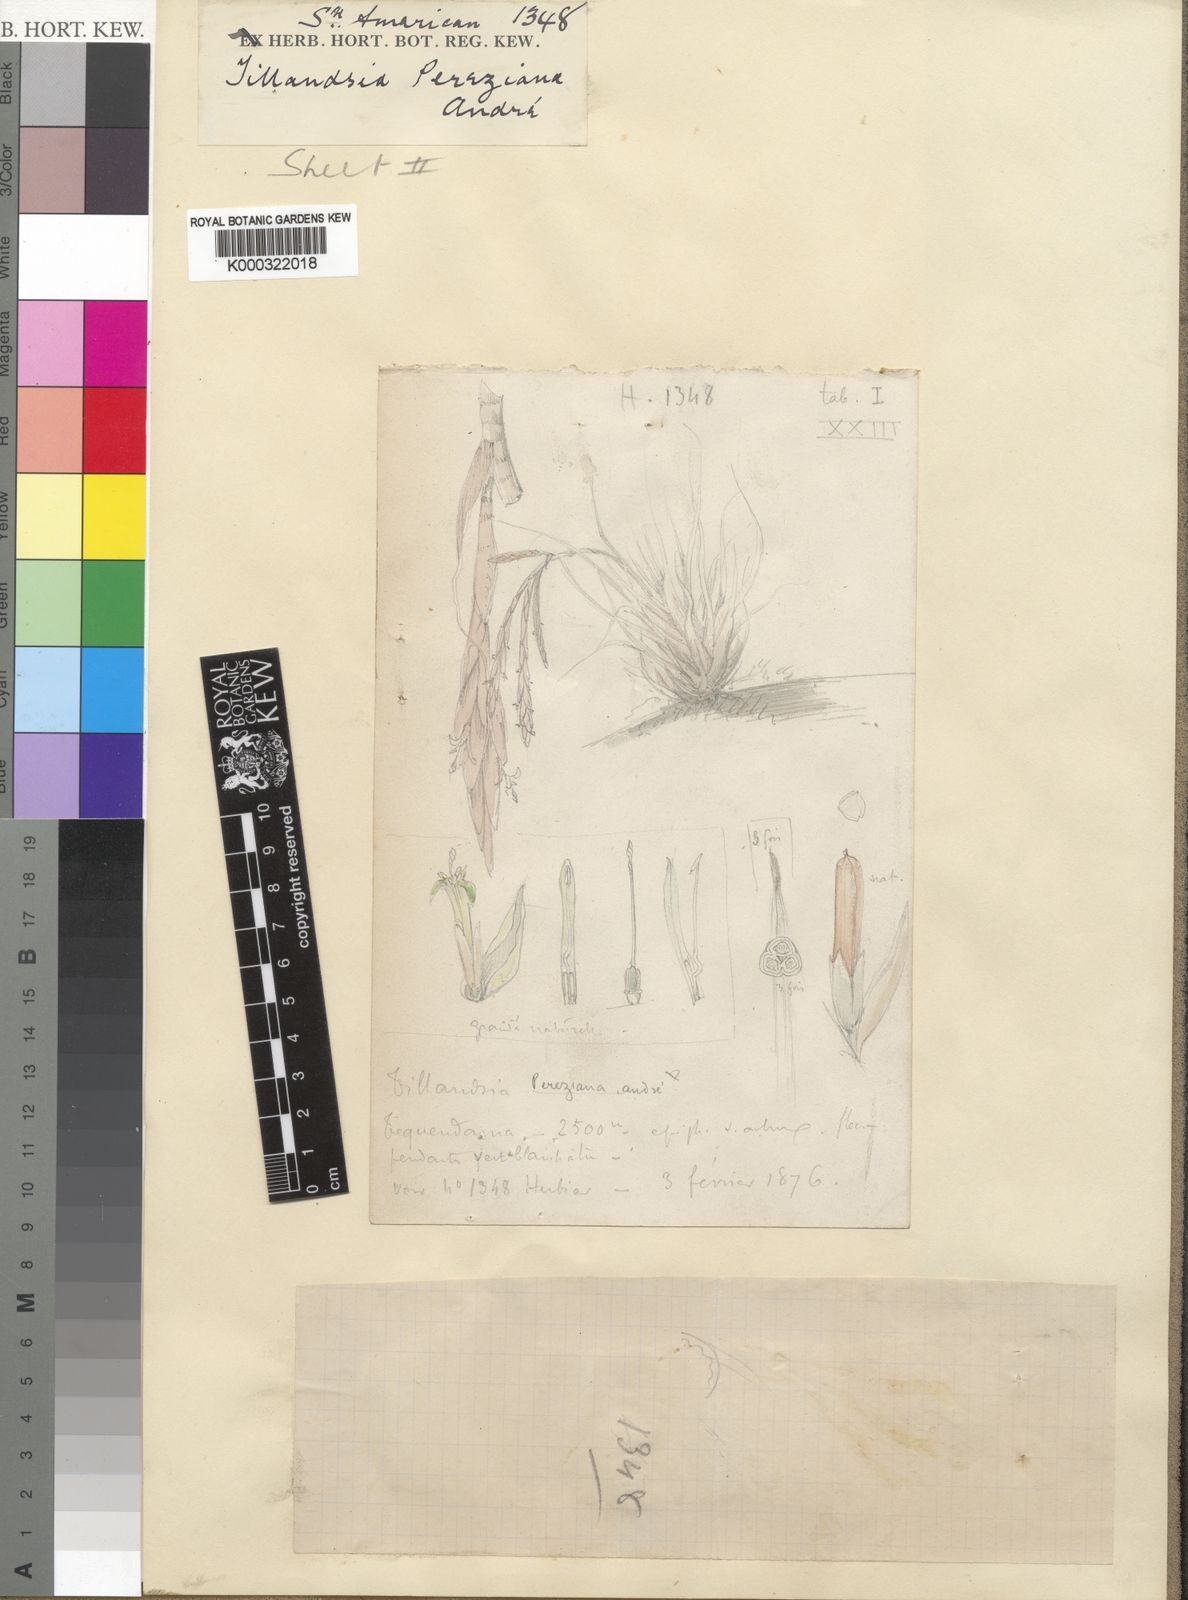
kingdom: Plantae
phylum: Tracheophyta
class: Liliopsida
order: Poales
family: Bromeliaceae
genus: Vriesea
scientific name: Vriesea pereziana
